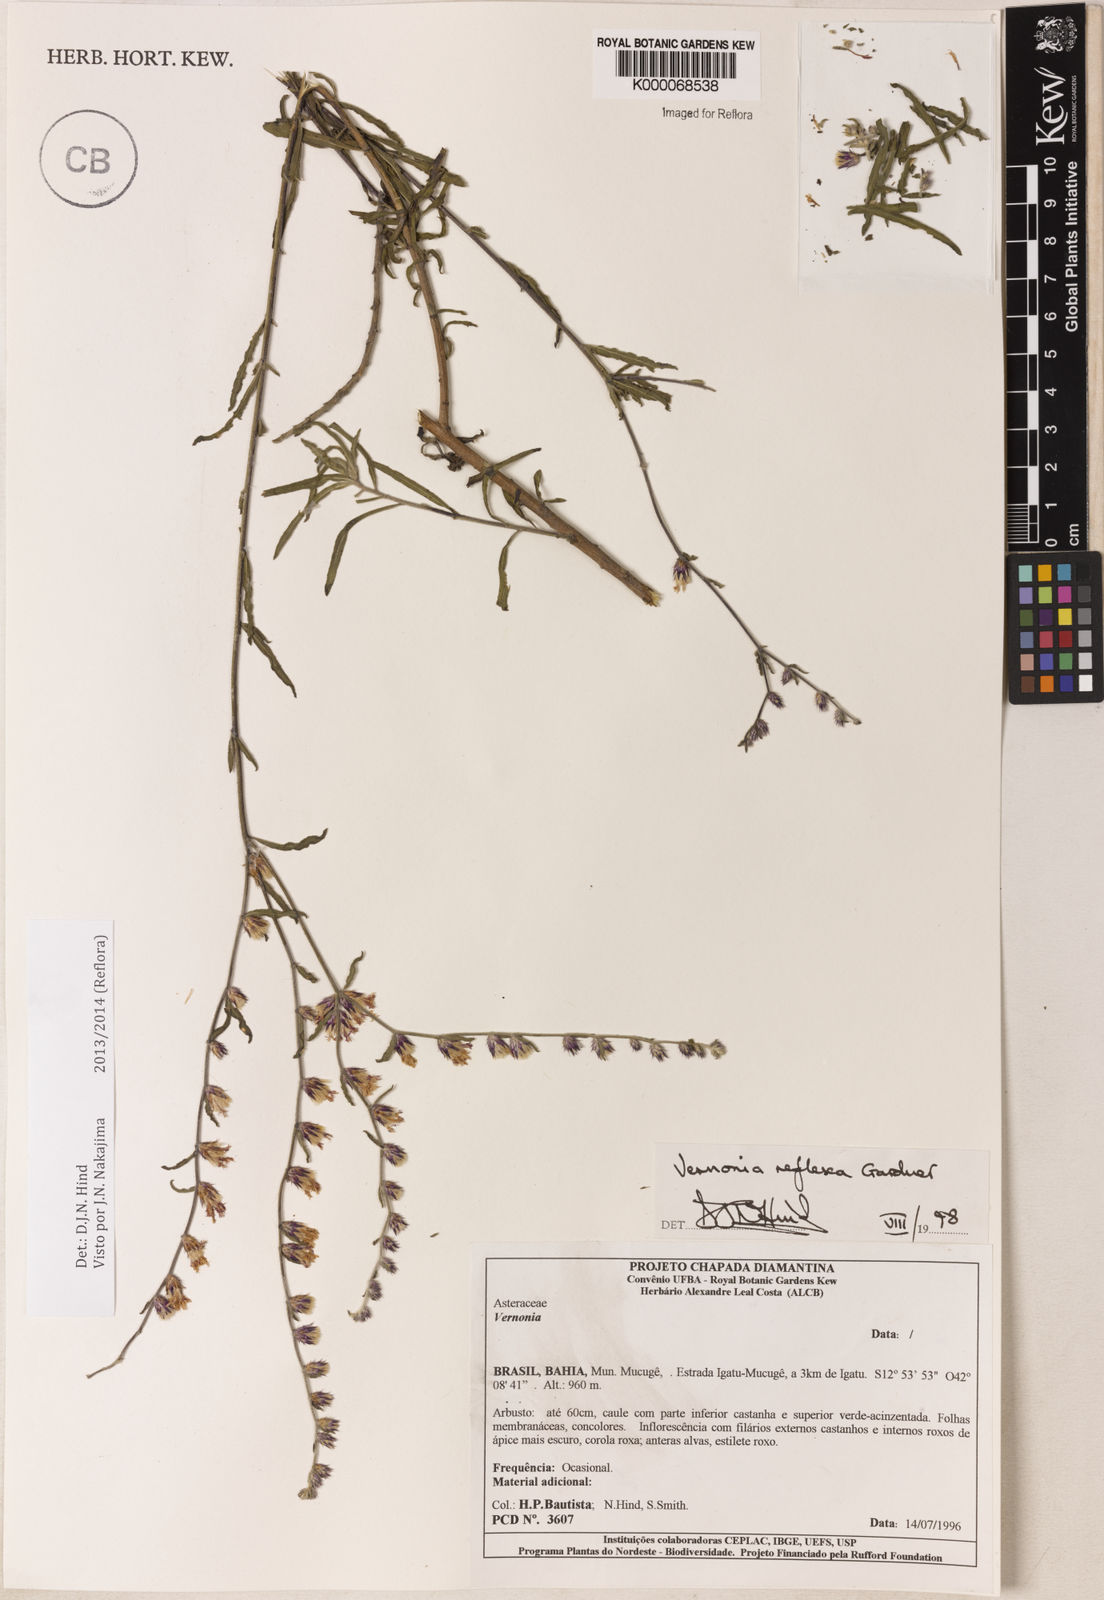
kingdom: Plantae
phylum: Tracheophyta
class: Magnoliopsida
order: Asterales
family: Asteraceae
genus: Lepidaploa
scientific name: Lepidaploa reflexa
